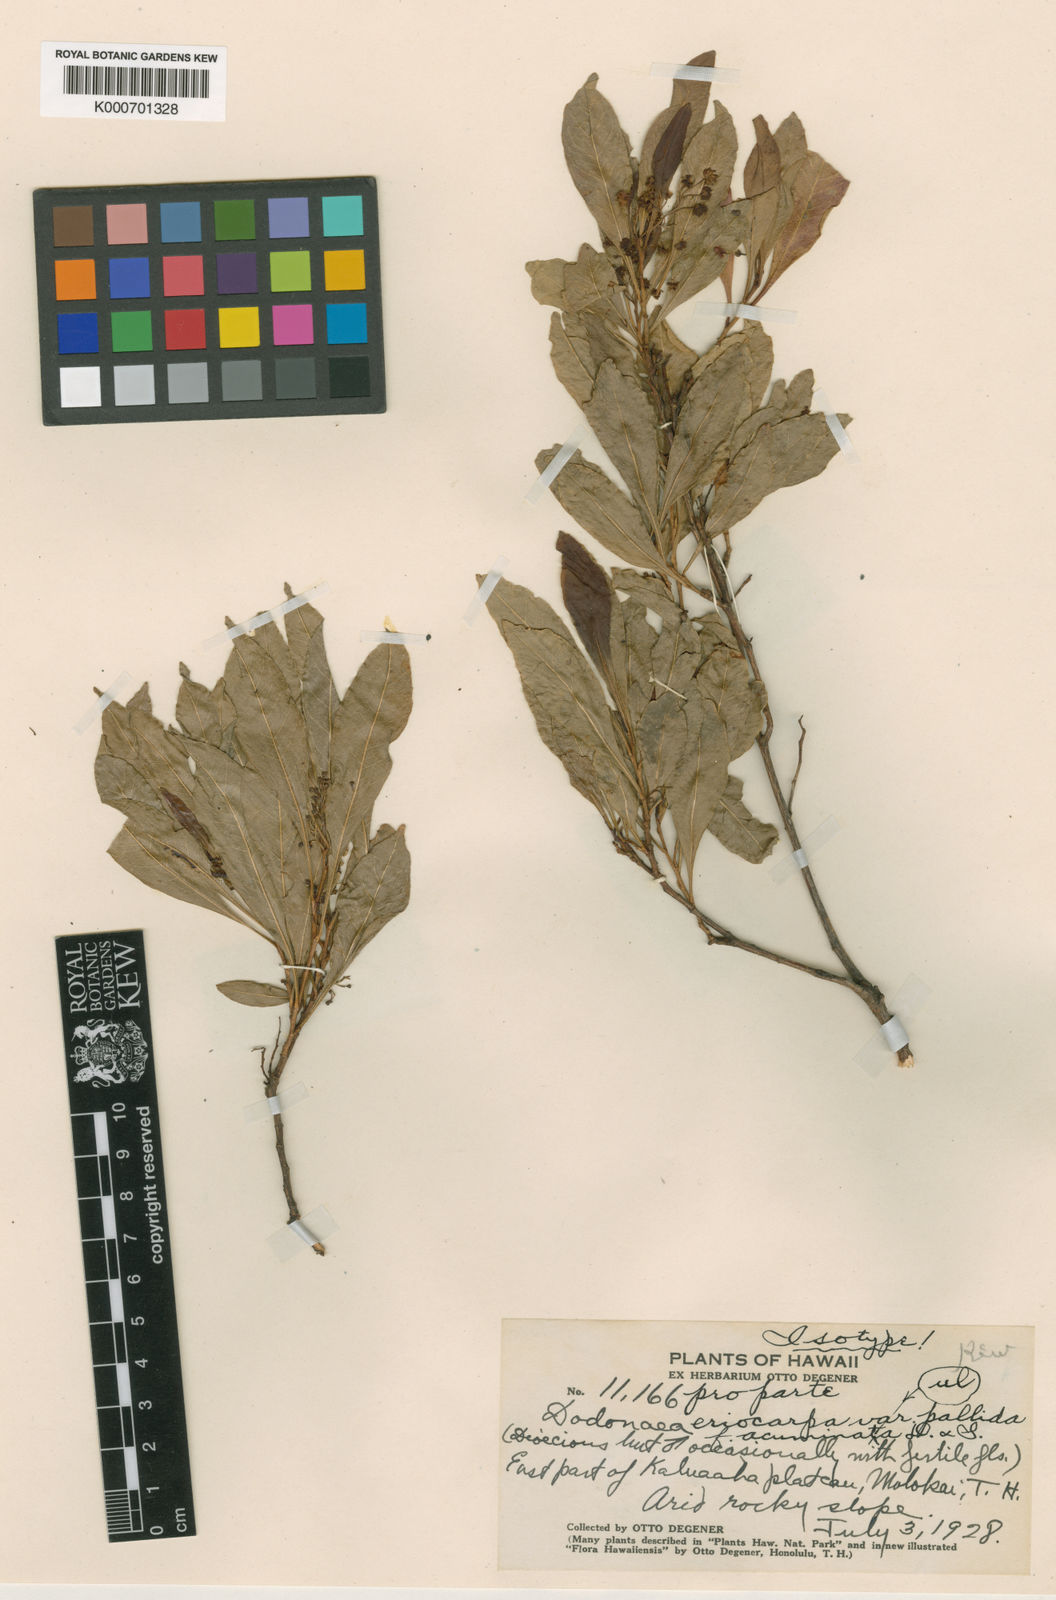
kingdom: Plantae
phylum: Tracheophyta
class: Magnoliopsida
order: Sapindales
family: Sapindaceae
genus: Dodonaea
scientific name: Dodonaea viscosa
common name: Hopbush
